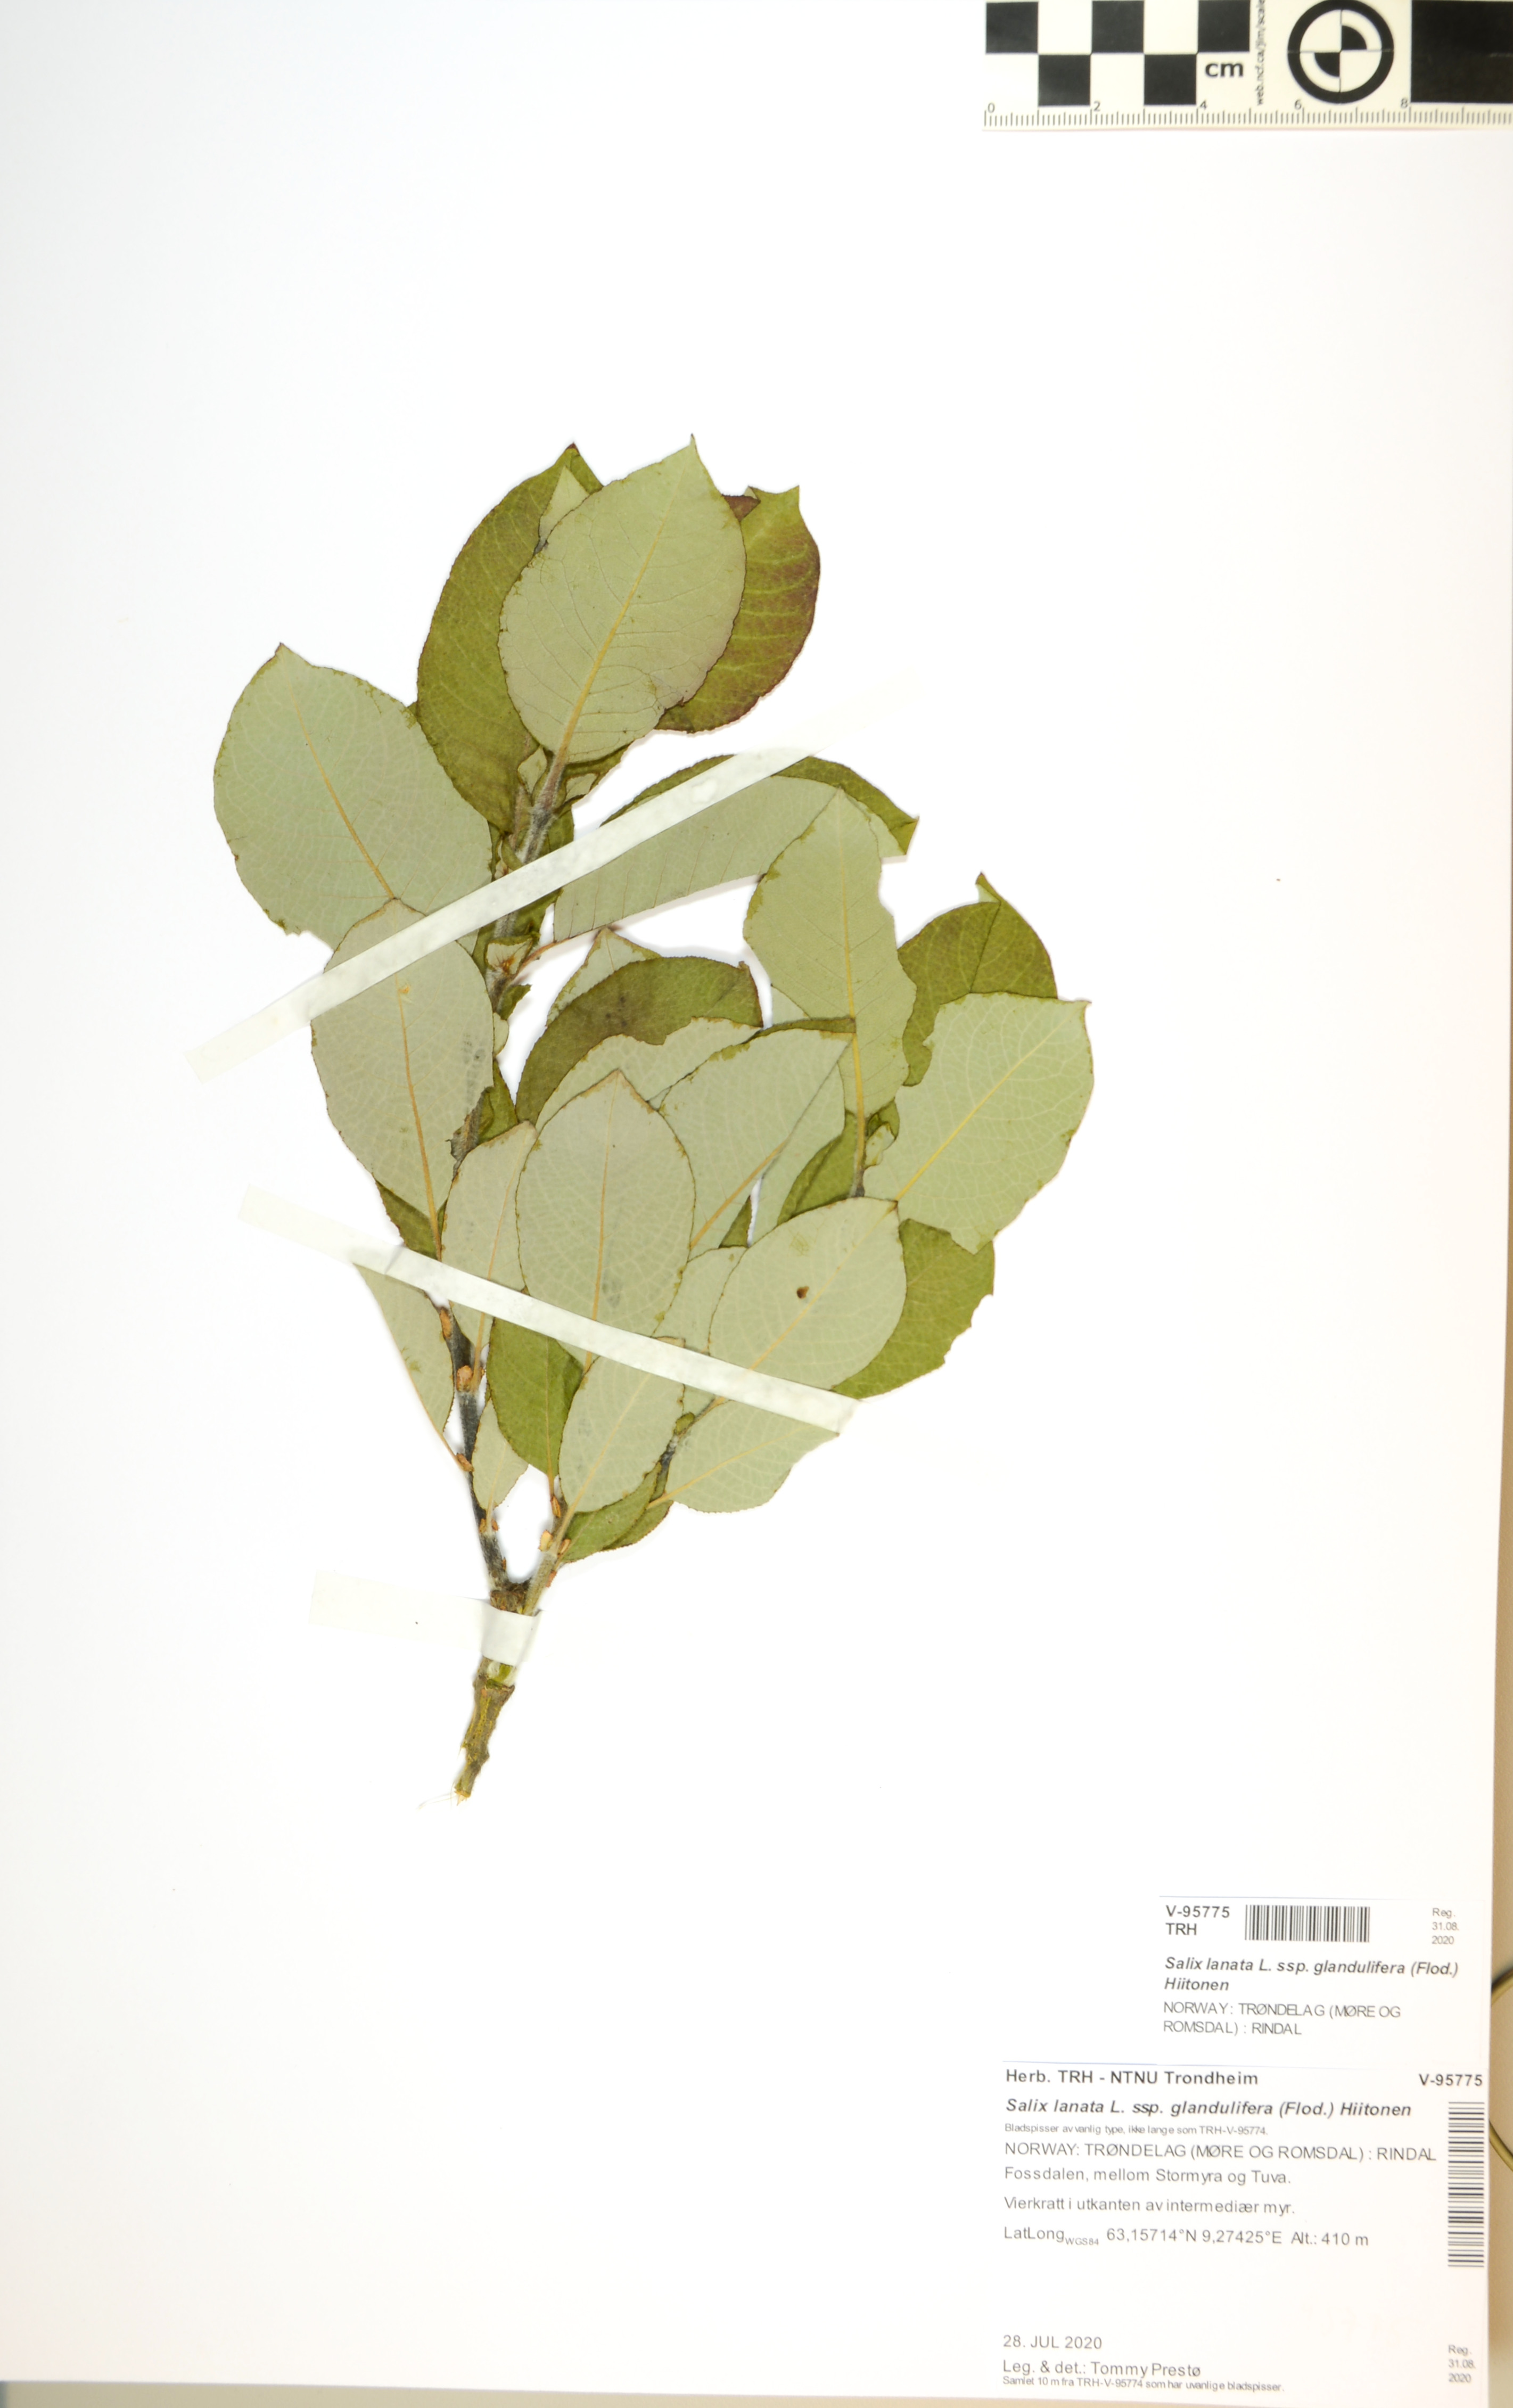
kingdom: Plantae
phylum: Tracheophyta
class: Magnoliopsida
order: Malpighiales
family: Salicaceae
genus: Salix
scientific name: Salix lanata
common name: Woolly willow
